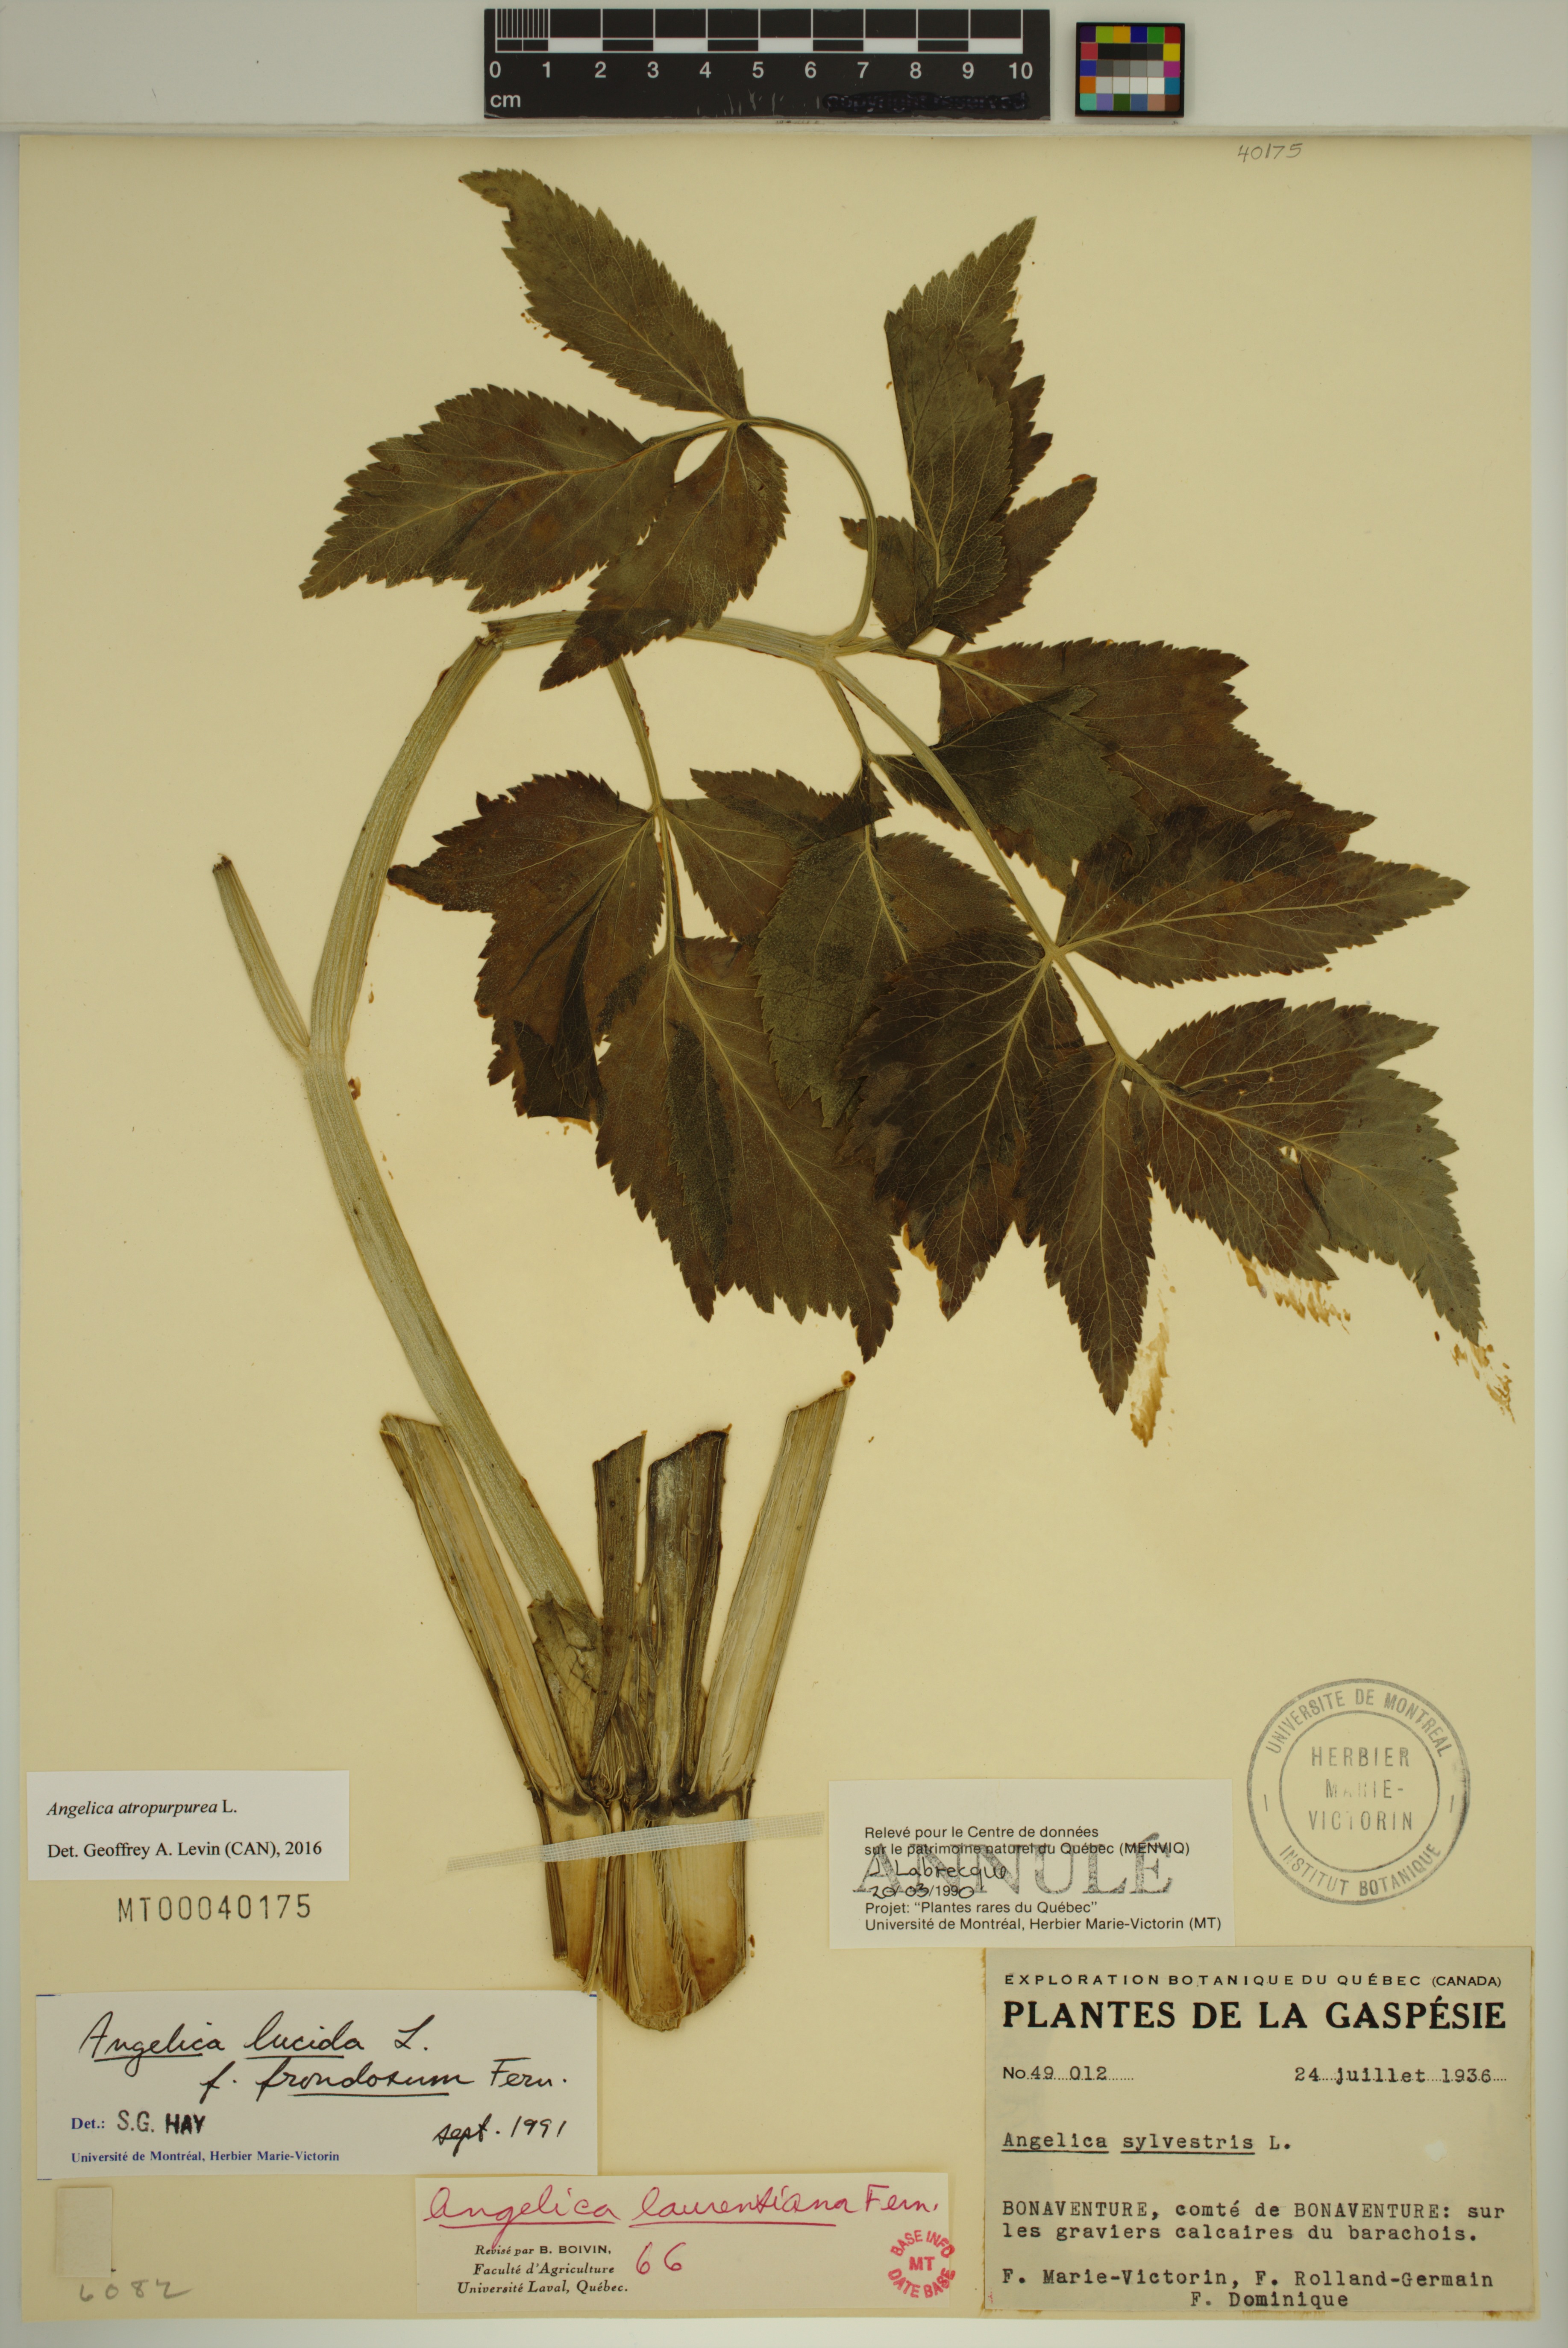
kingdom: Plantae
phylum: Tracheophyta
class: Magnoliopsida
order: Apiales
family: Apiaceae
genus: Angelica
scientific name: Angelica atropurpurea
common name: Great angelica
